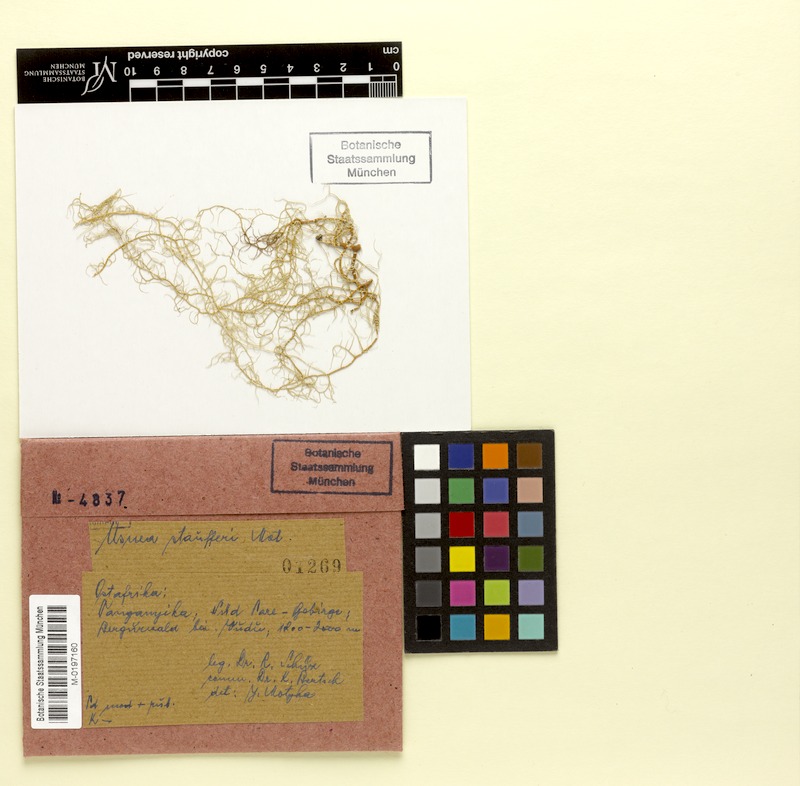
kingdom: Fungi
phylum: Ascomycota
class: Lecanoromycetes
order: Lecanorales
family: Parmeliaceae
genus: Usnea
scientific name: Usnea
